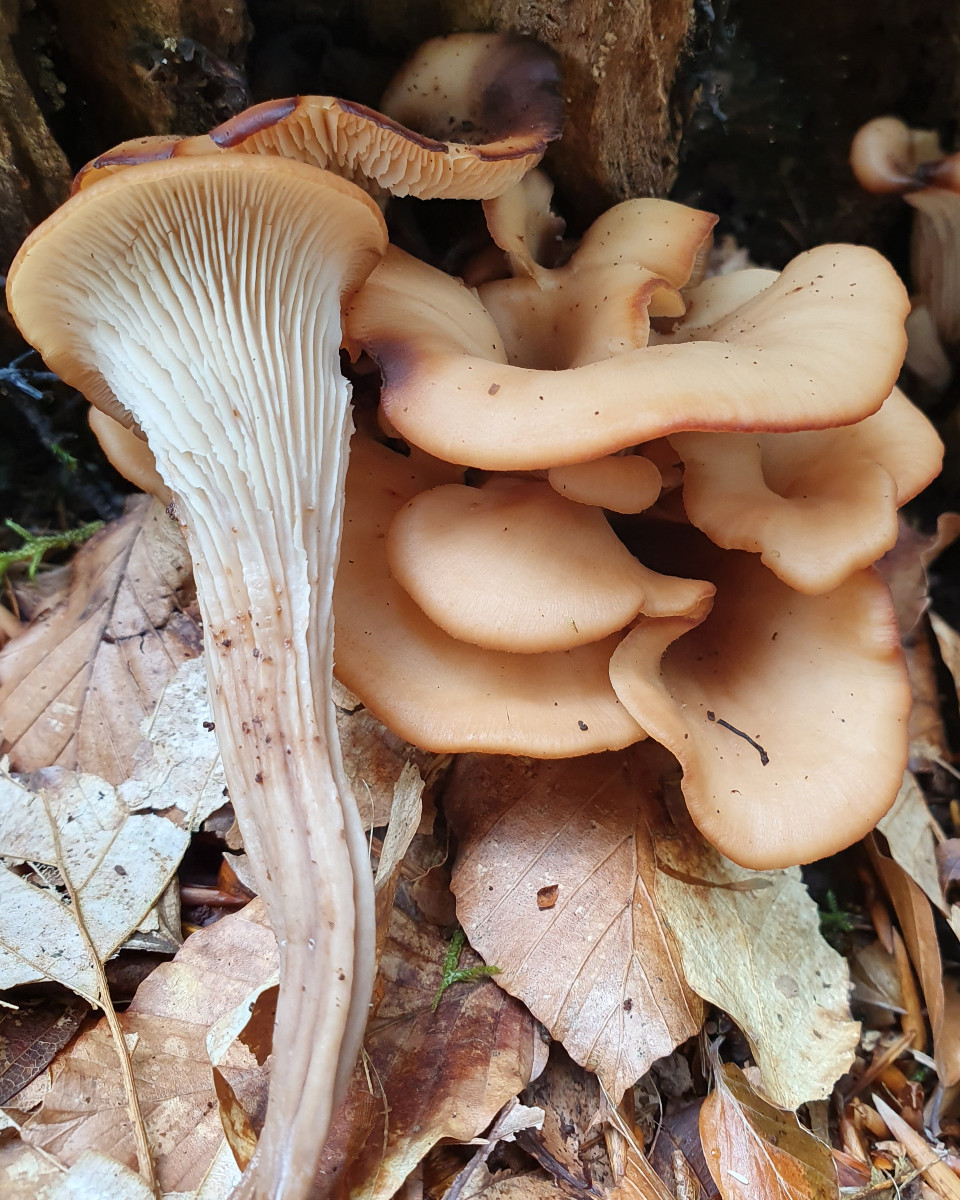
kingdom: Fungi
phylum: Basidiomycota
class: Agaricomycetes
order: Russulales
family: Auriscalpiaceae
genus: Lentinellus
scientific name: Lentinellus cochleatus
